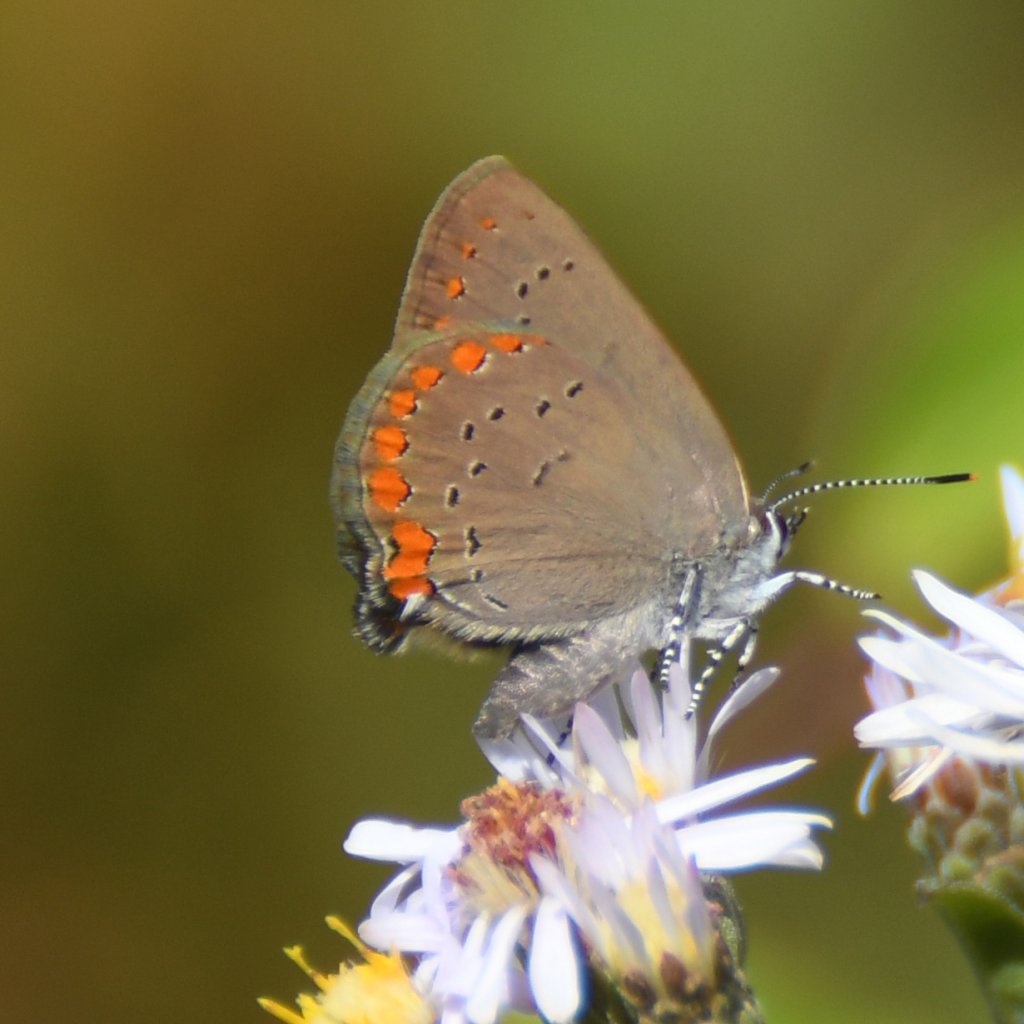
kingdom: Animalia
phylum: Arthropoda
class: Insecta
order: Lepidoptera
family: Lycaenidae
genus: Harkenclenus
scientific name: Harkenclenus titus
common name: Coral Hairstreak
